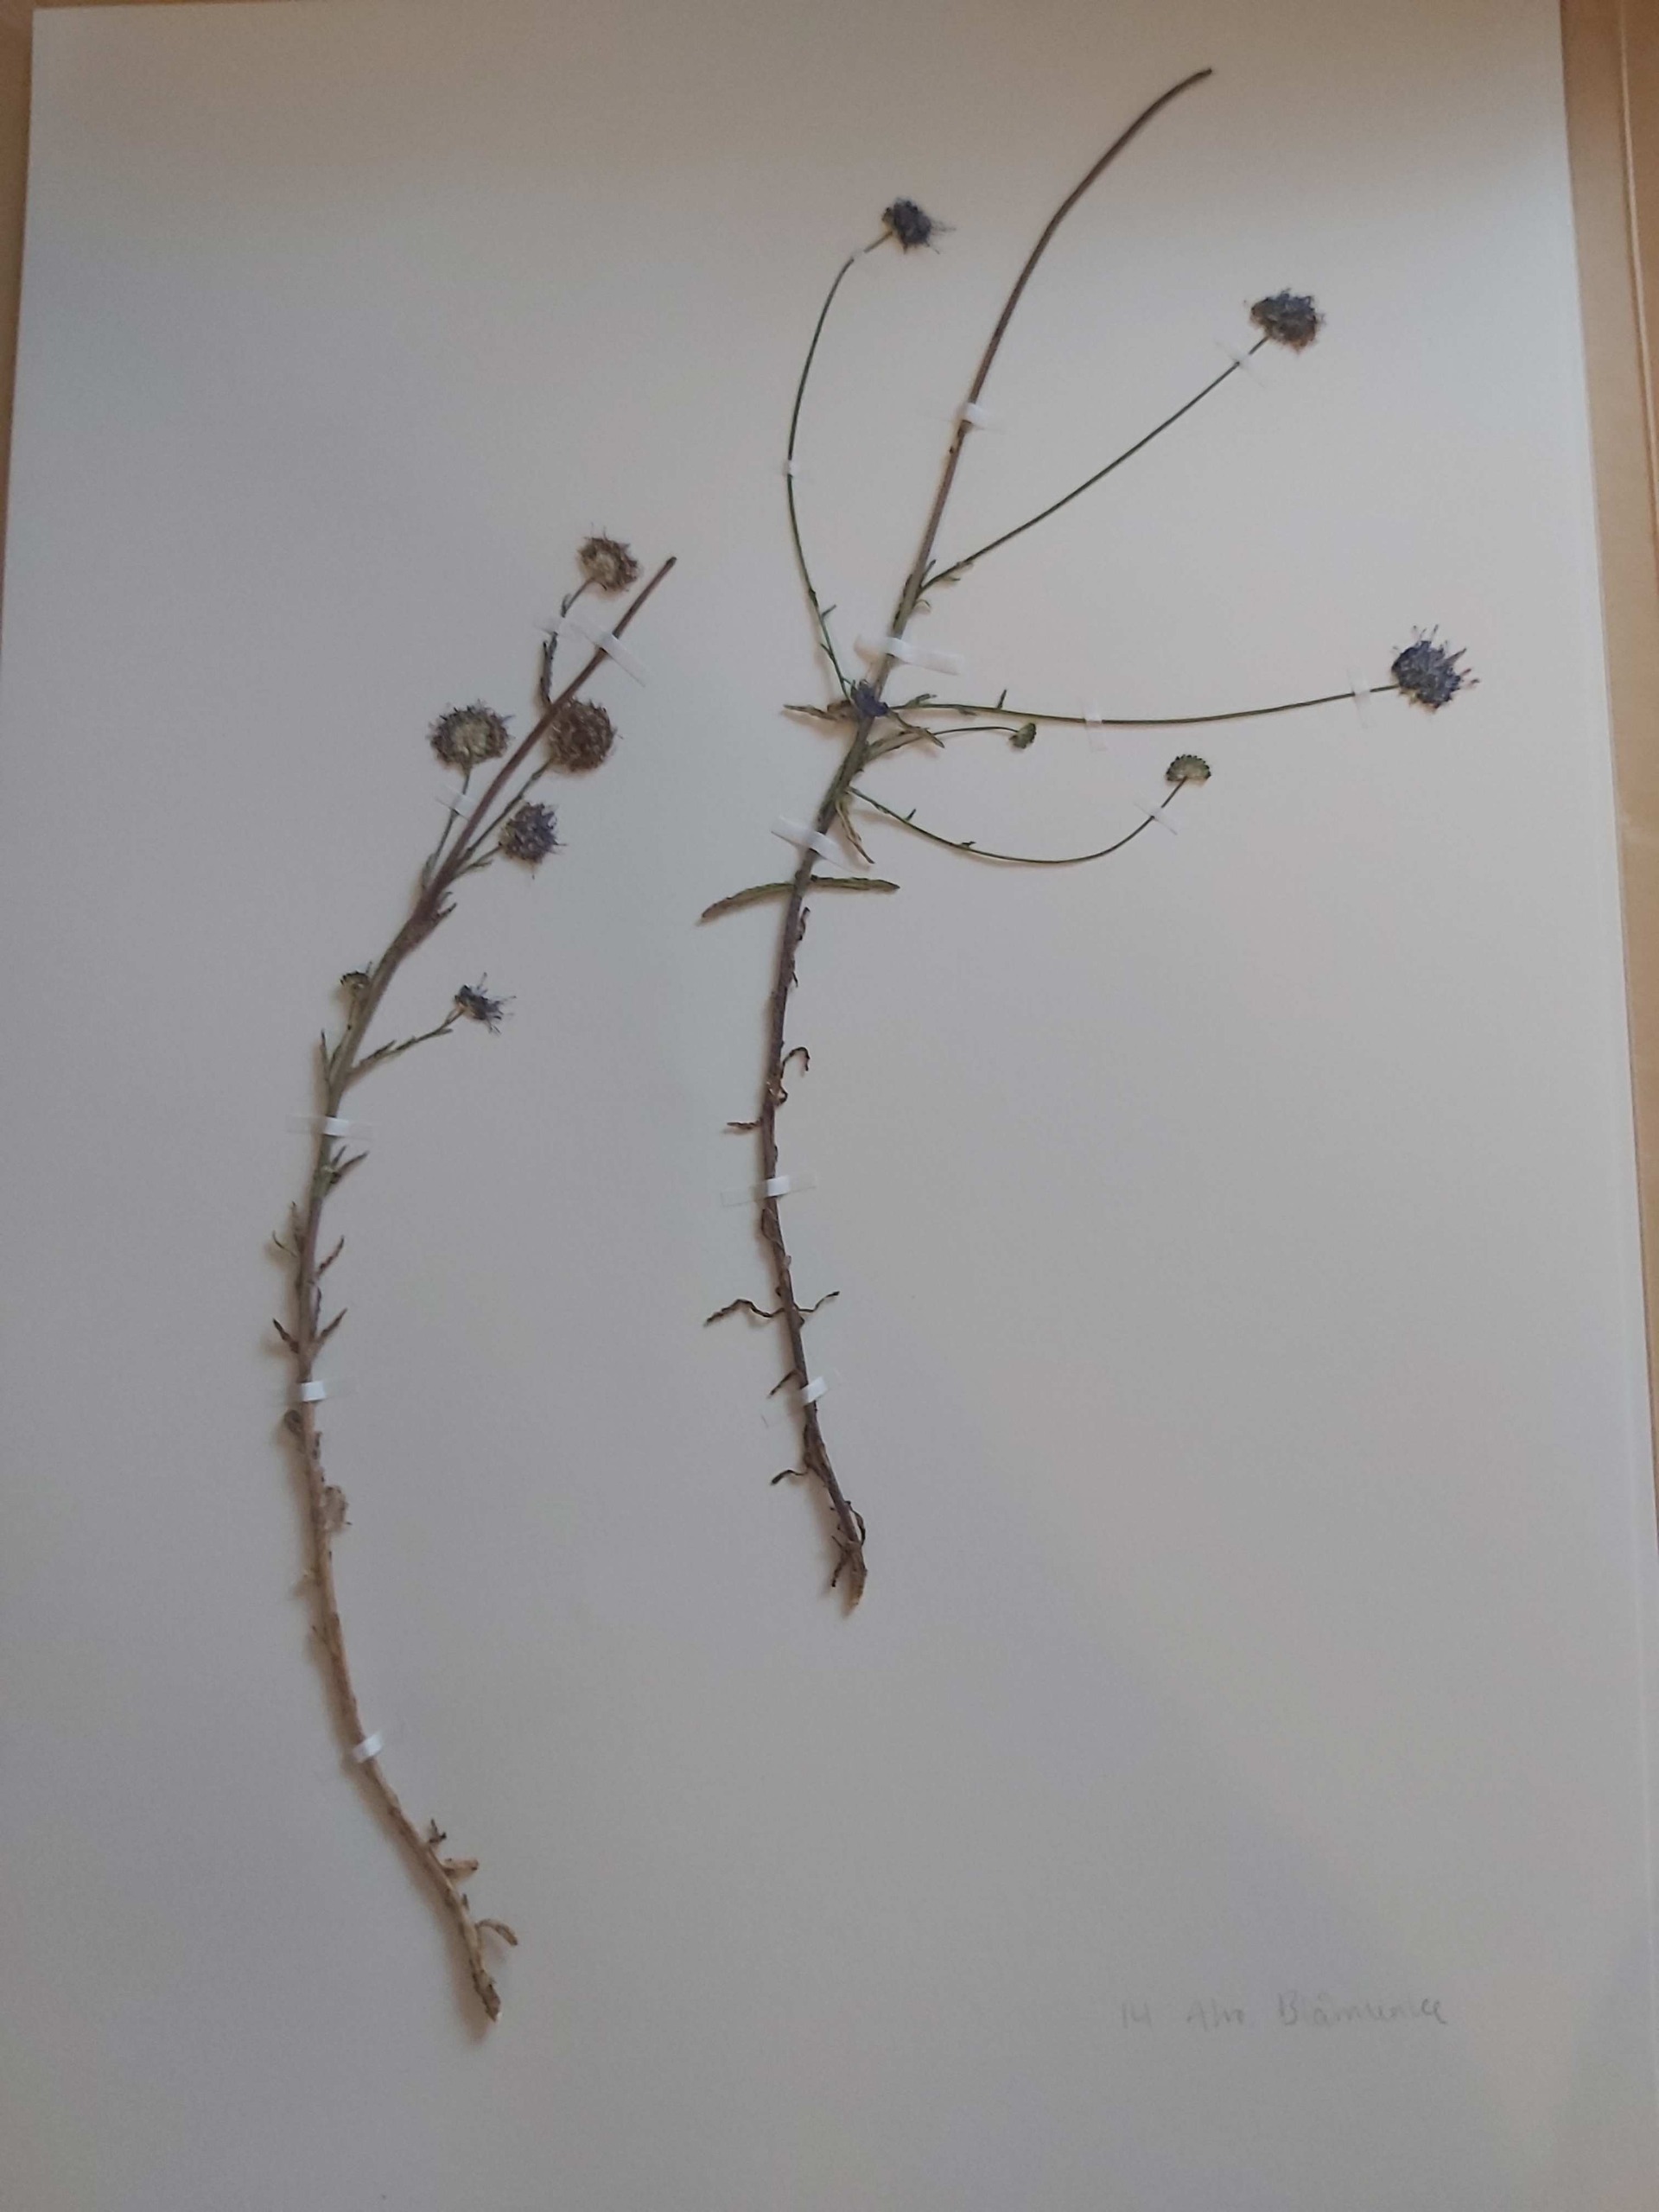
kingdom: Plantae
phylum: Tracheophyta
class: Magnoliopsida
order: Asterales
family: Campanulaceae
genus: Jasione
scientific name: Jasione montana
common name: Blåmunke
